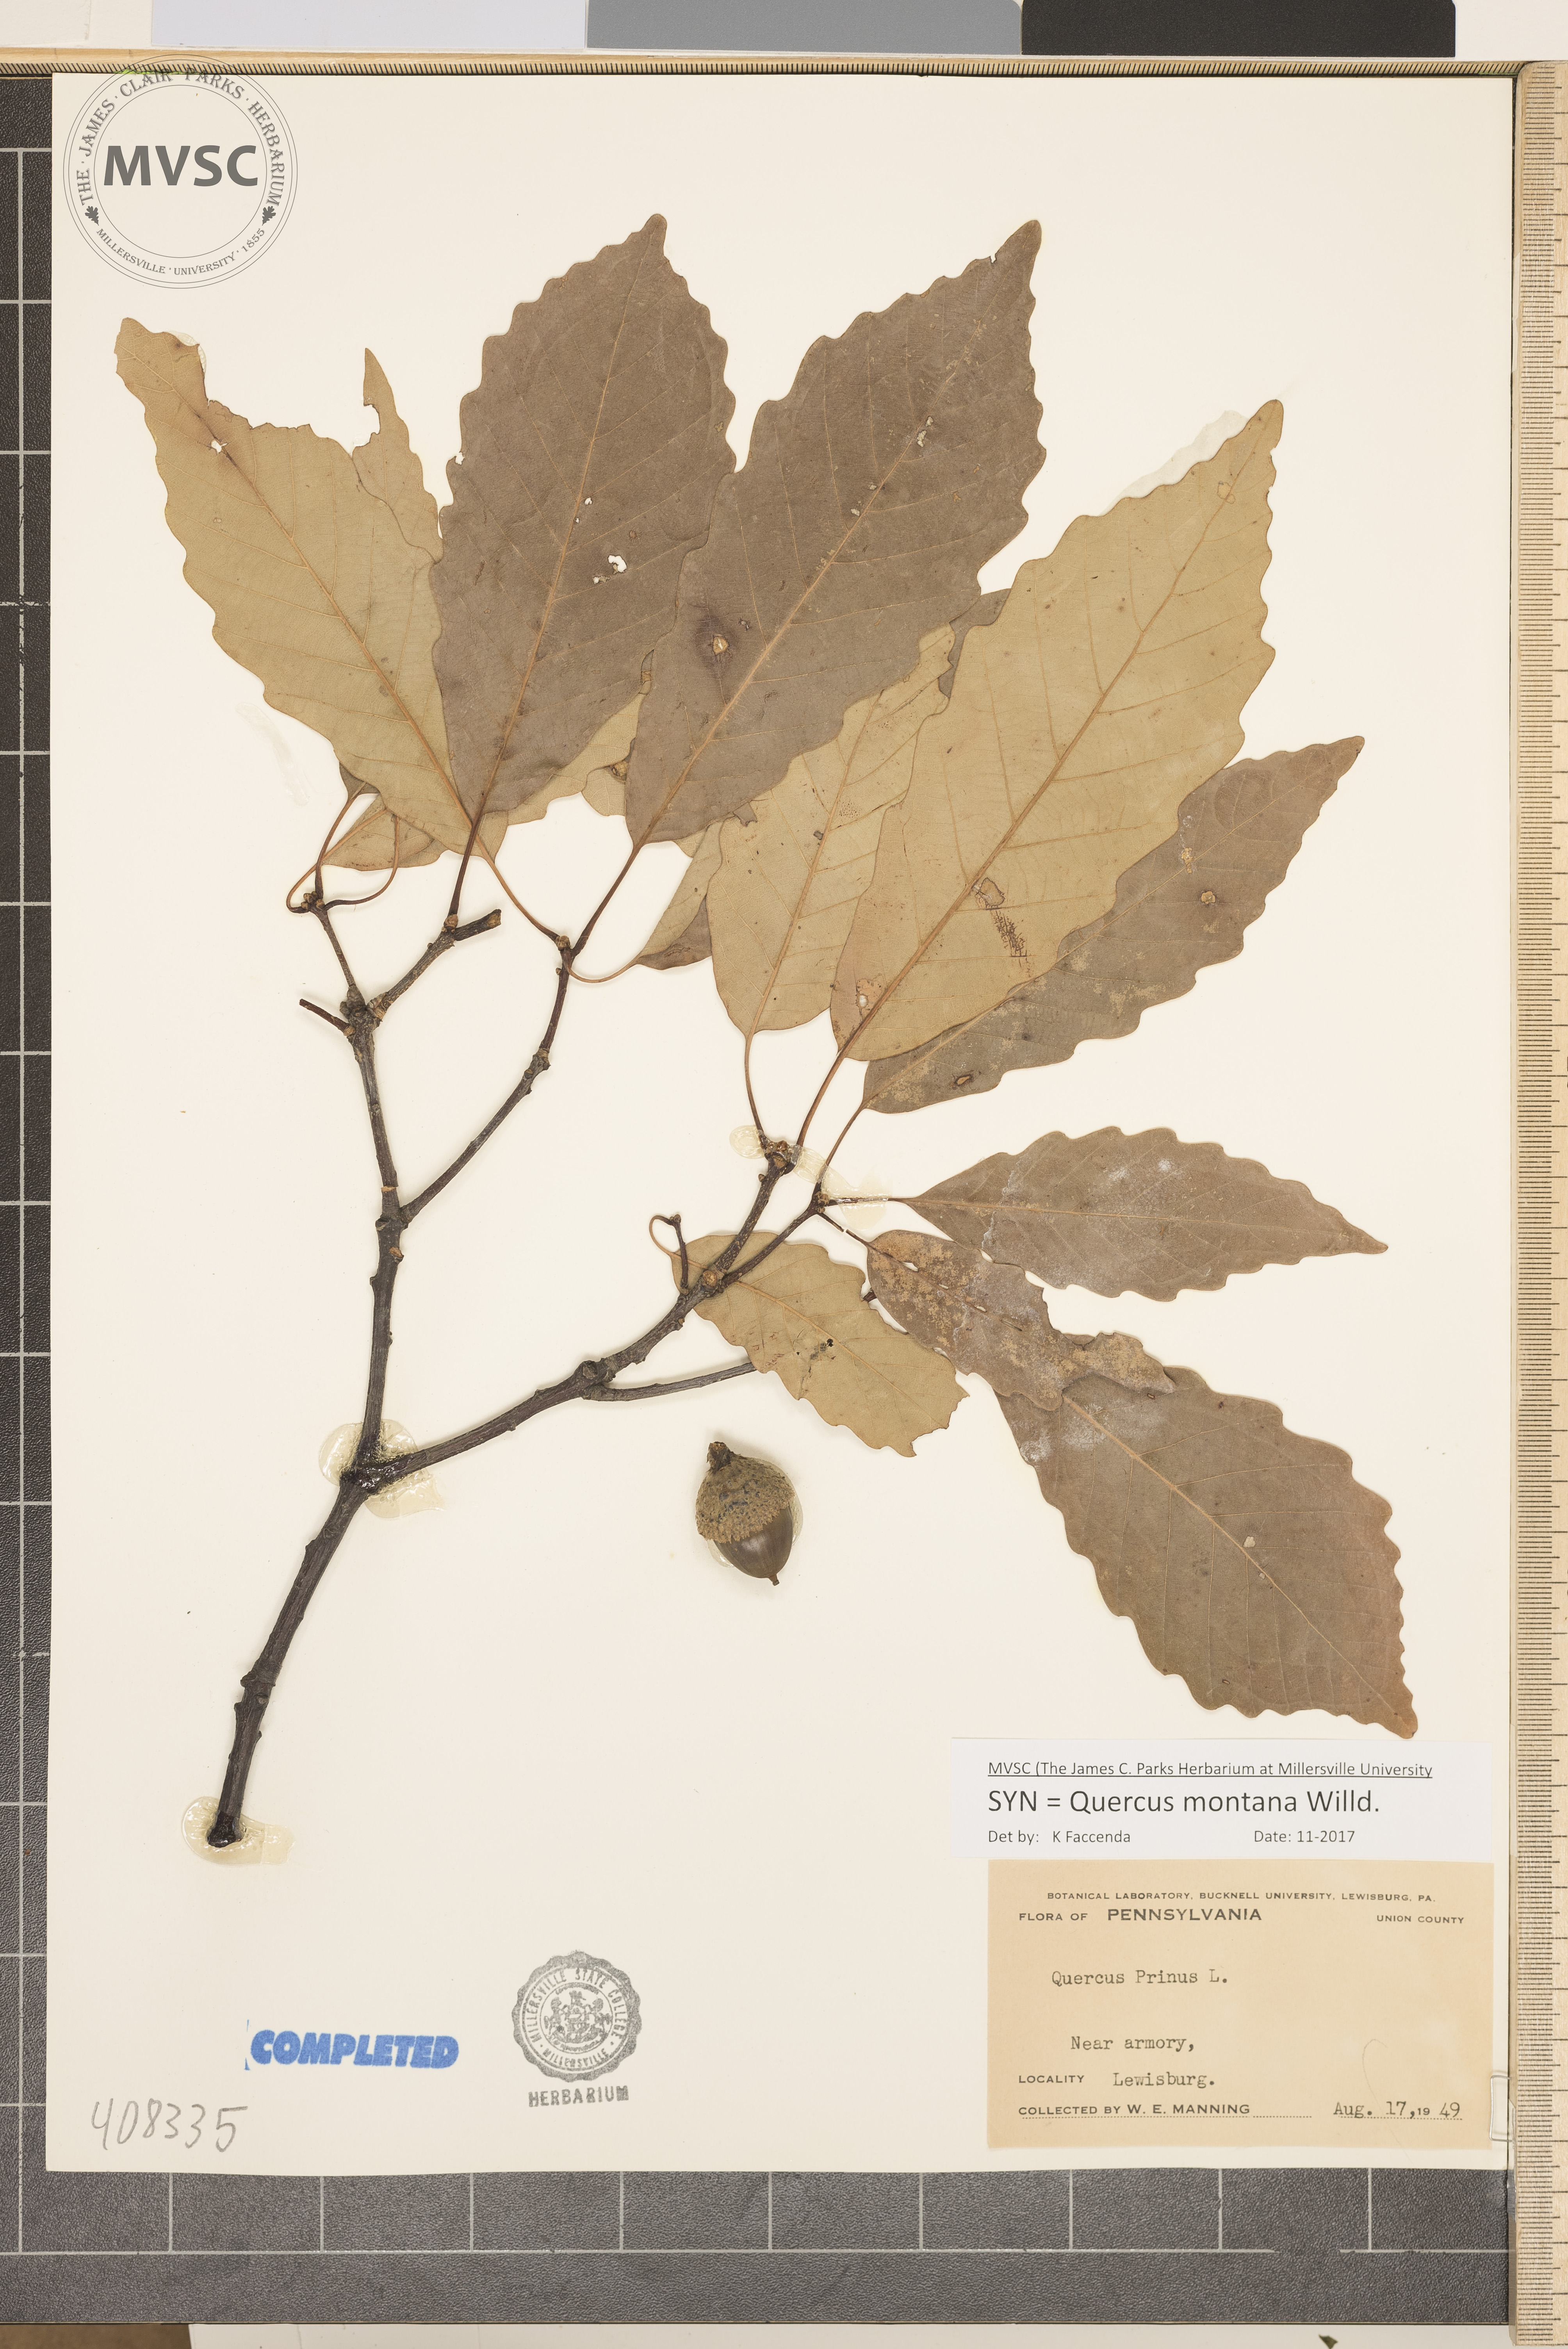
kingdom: Plantae
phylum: Tracheophyta
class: Magnoliopsida
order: Fagales
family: Fagaceae
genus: Quercus
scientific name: Quercus montana
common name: Chestnut oak
